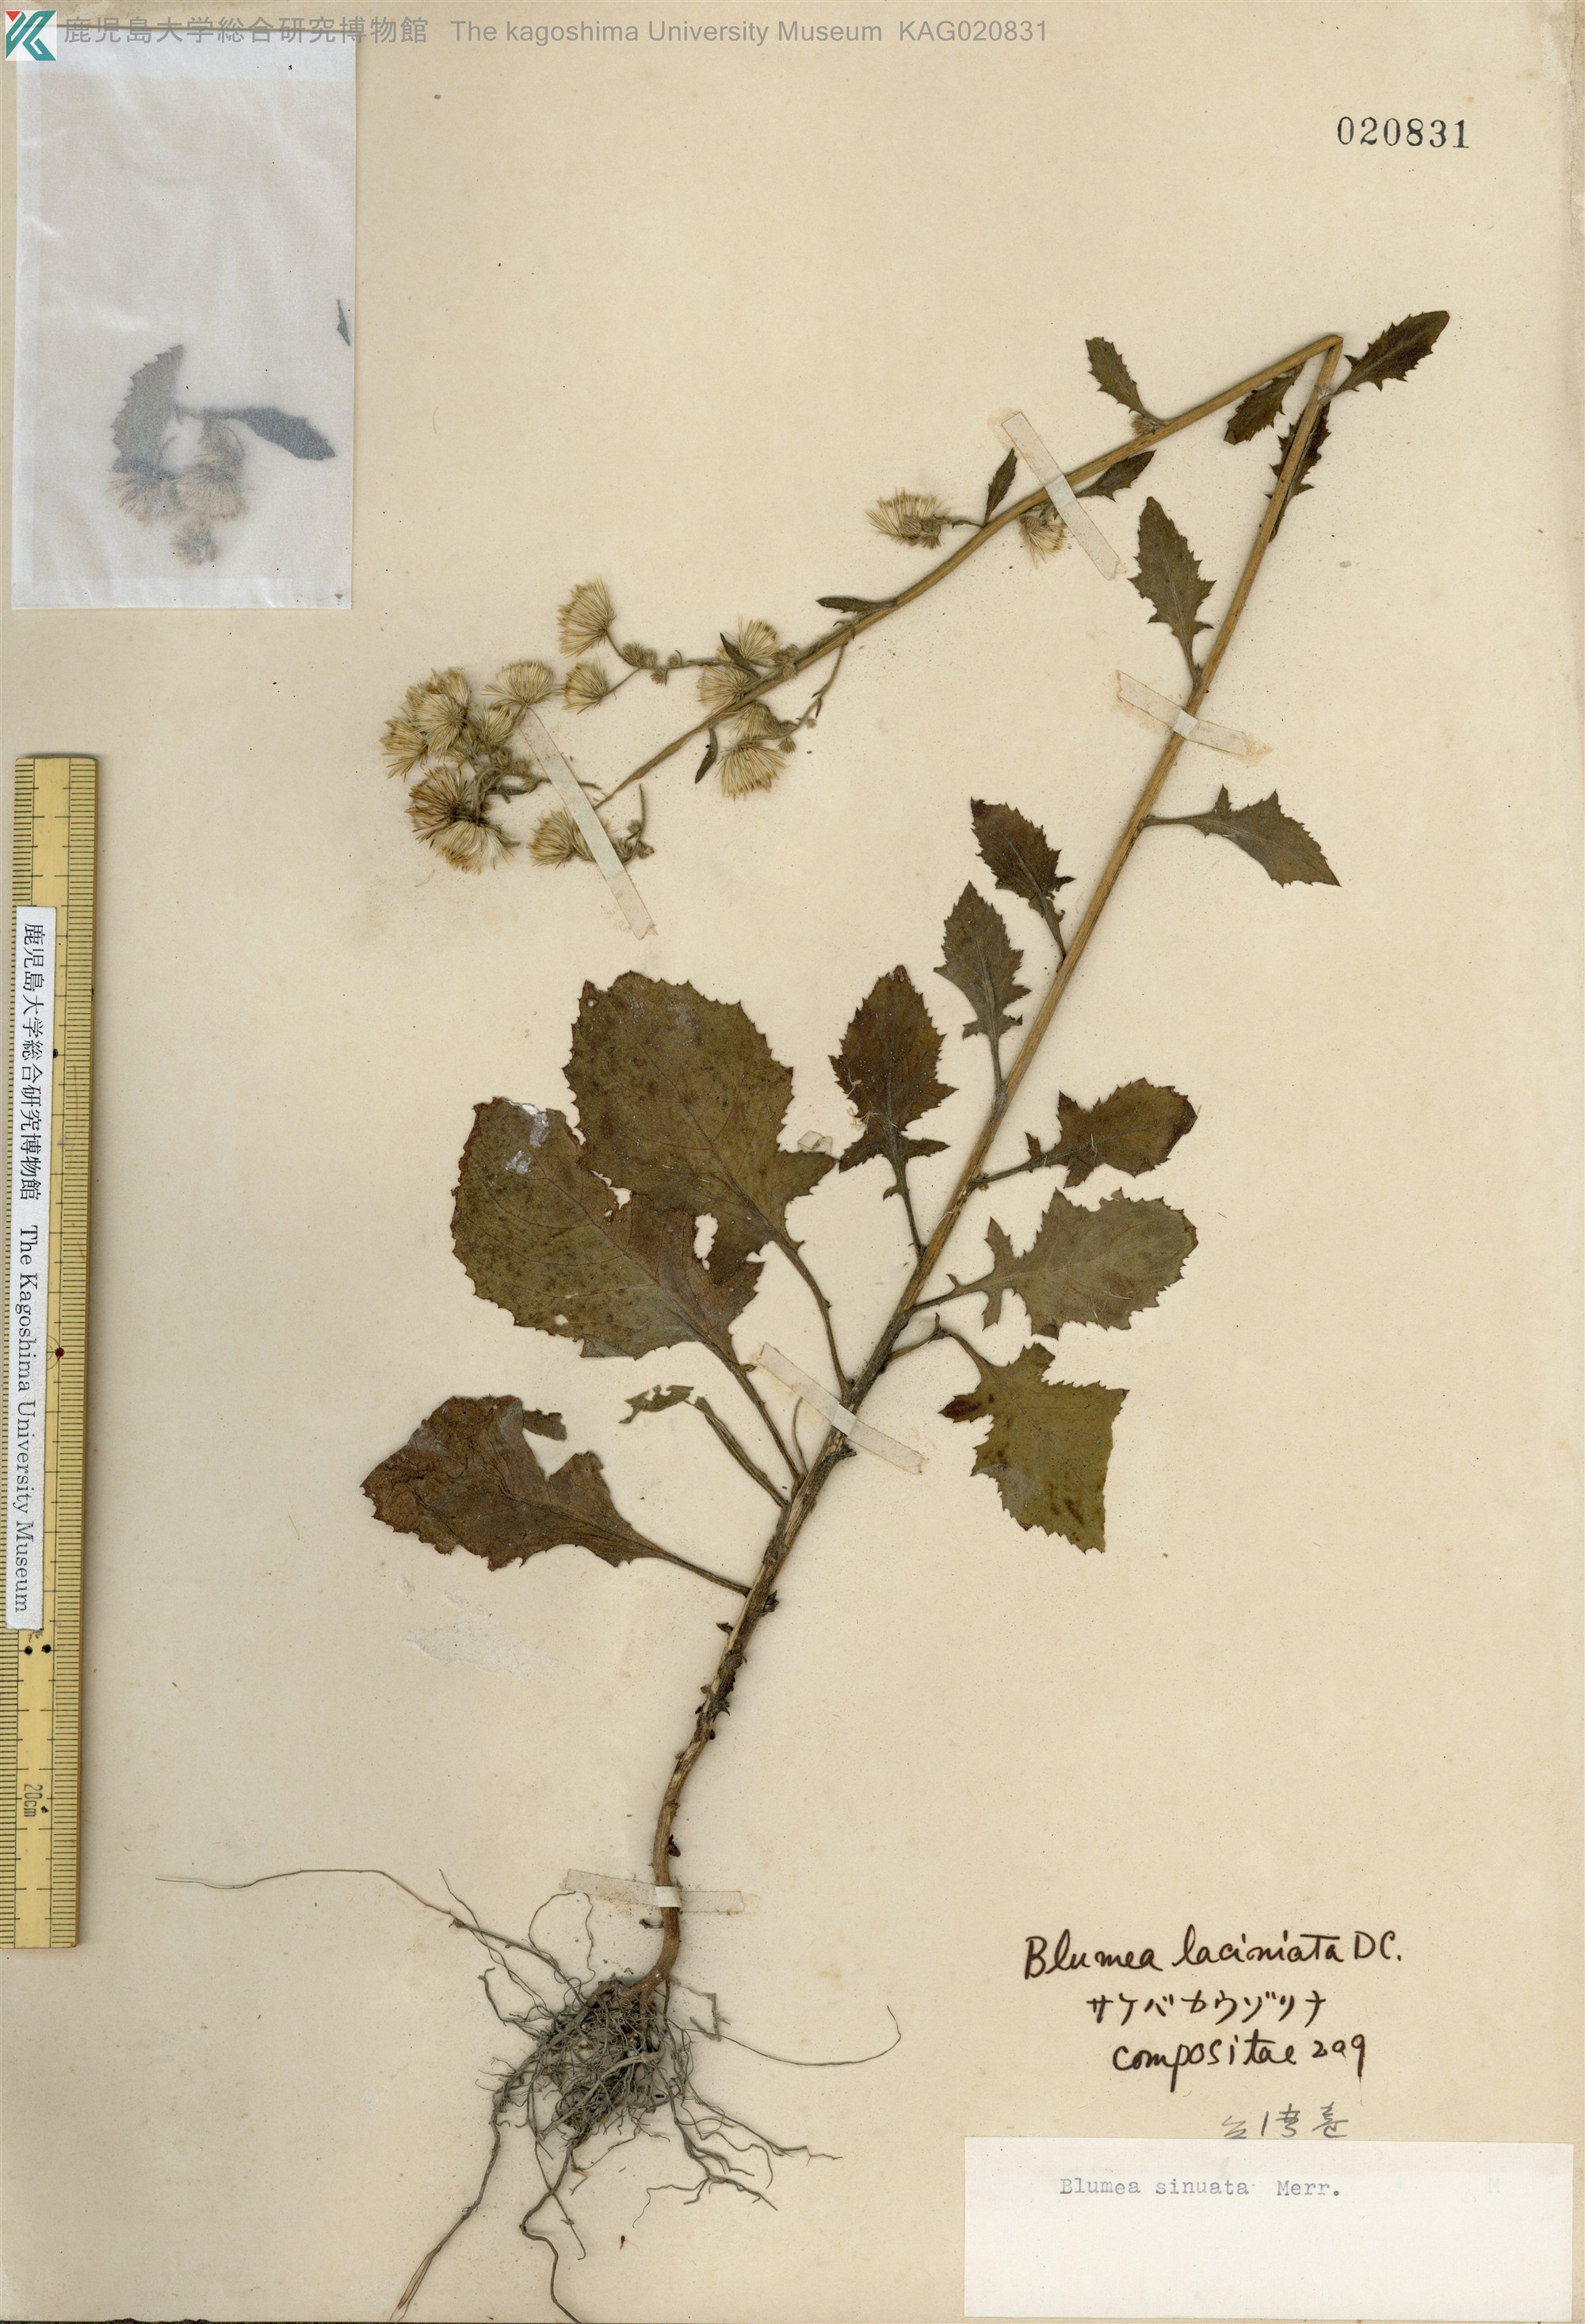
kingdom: Plantae
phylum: Tracheophyta
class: Magnoliopsida
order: Asterales
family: Asteraceae
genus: Blumea
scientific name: Blumea sinuata
